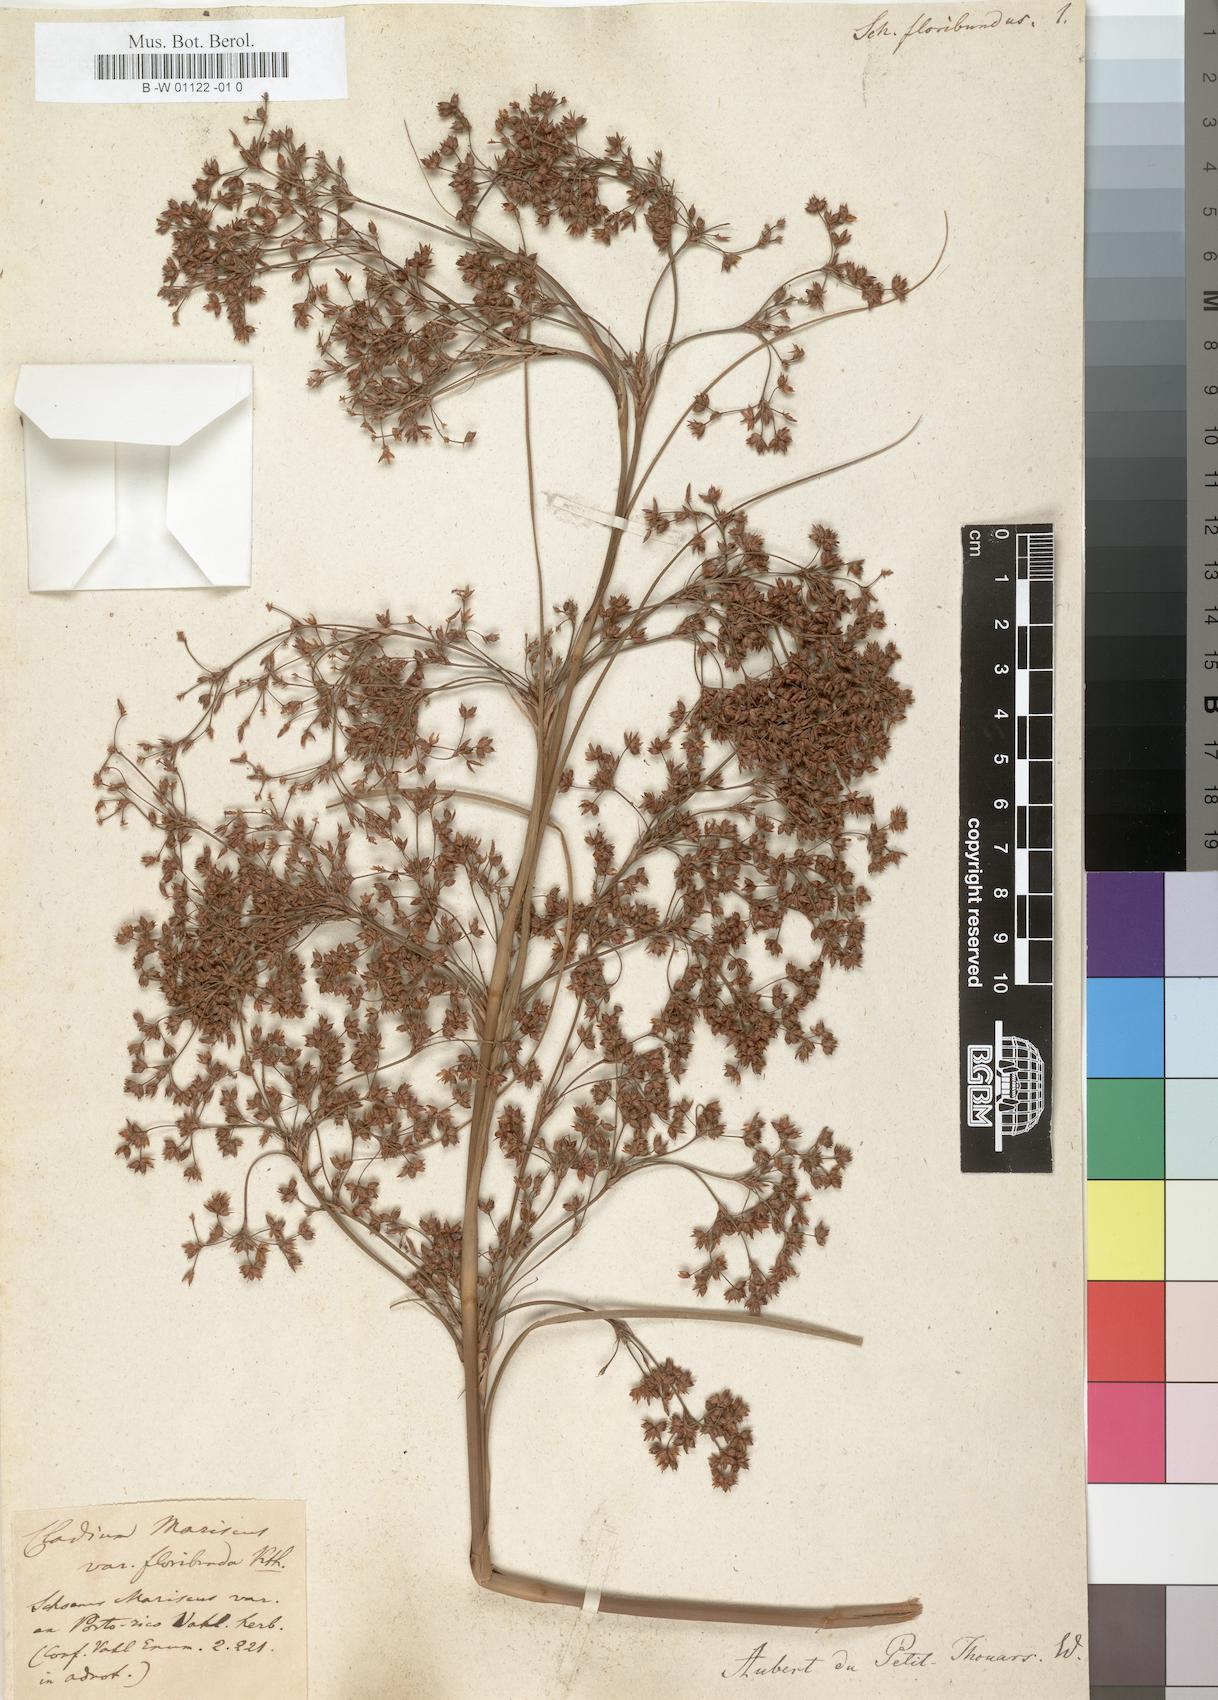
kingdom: Plantae
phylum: Tracheophyta
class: Liliopsida
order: Poales
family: Cyperaceae
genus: Cladium
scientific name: Cladium mariscus
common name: Great fen-sedge
